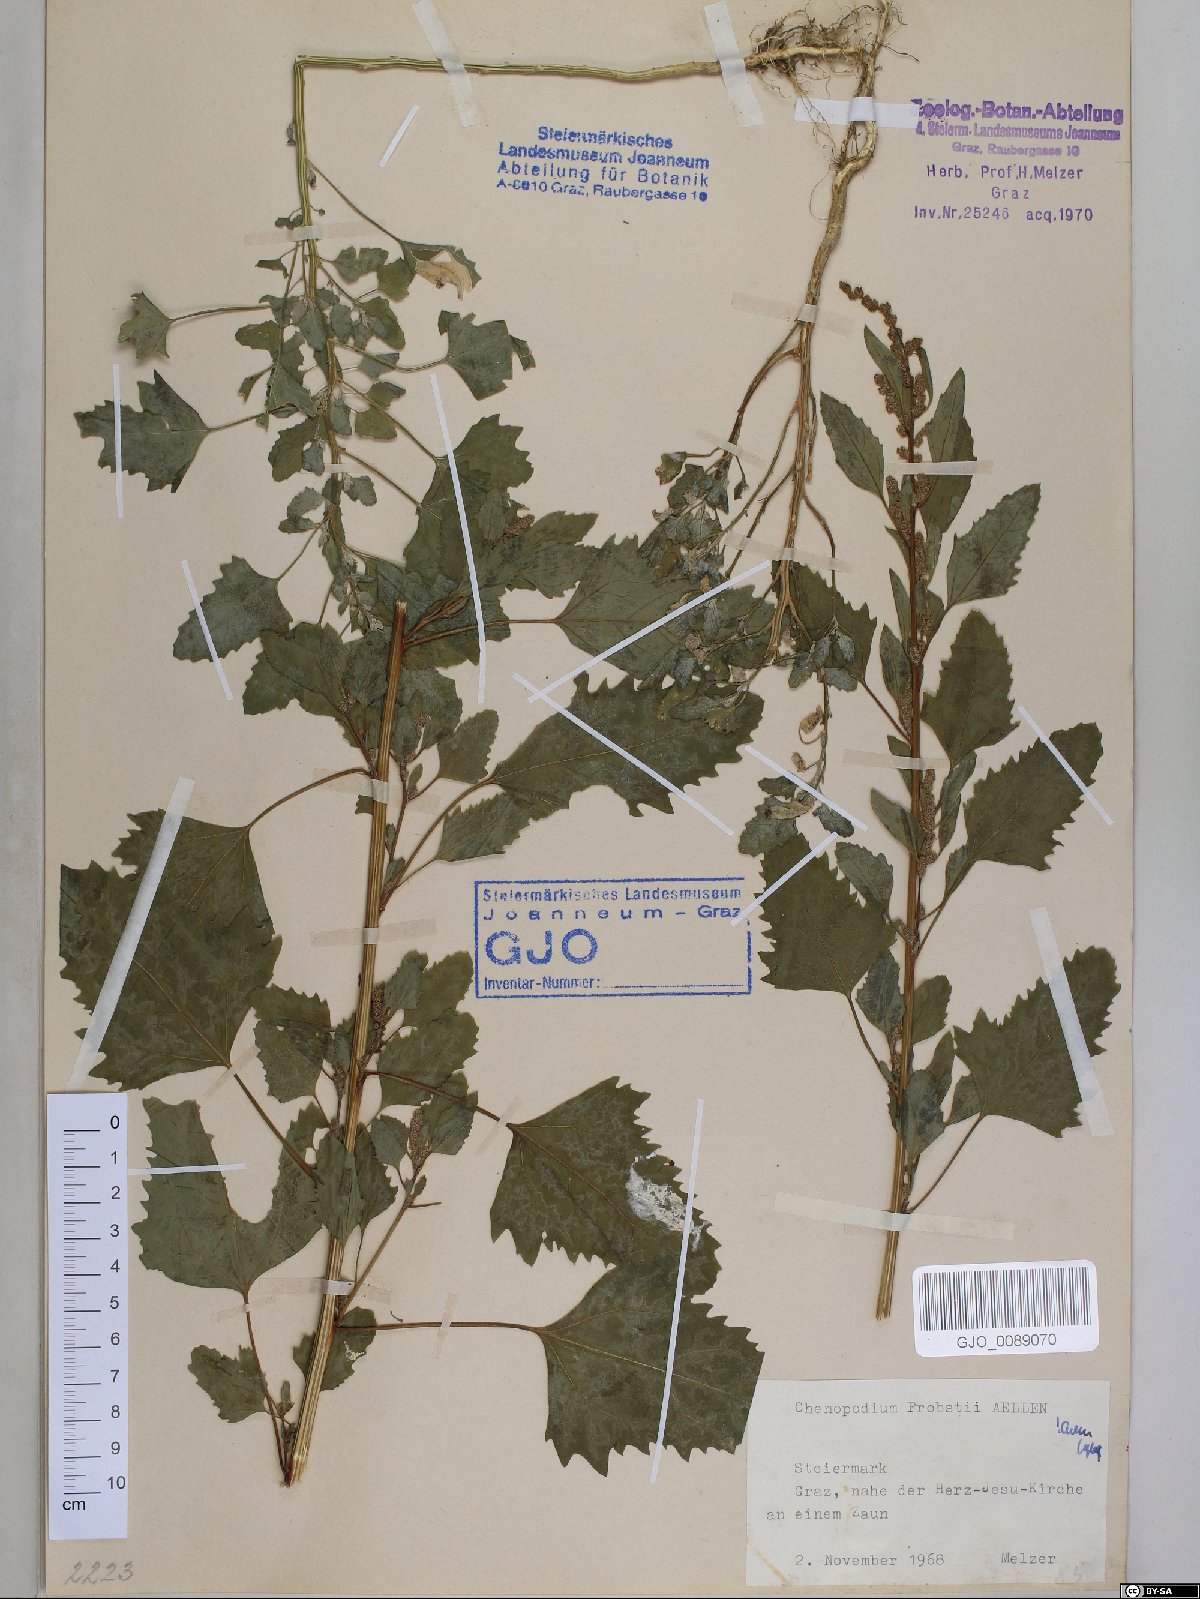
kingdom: Plantae
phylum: Tracheophyta
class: Magnoliopsida
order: Caryophyllales
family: Amaranthaceae
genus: Chenopodium
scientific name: Chenopodium probstii
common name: Probst's goosefoot
